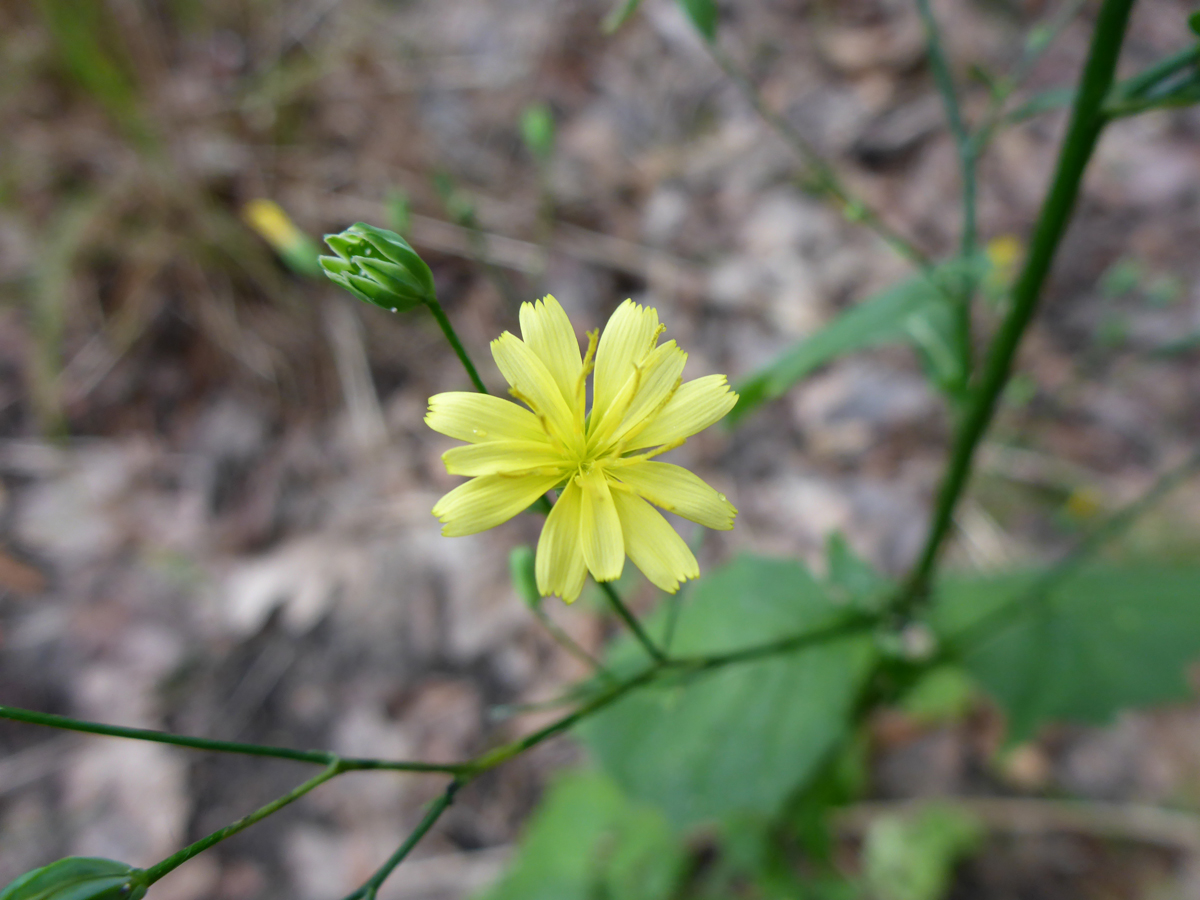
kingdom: Plantae
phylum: Tracheophyta
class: Magnoliopsida
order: Asterales
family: Asteraceae
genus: Lapsana
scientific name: Lapsana communis
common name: Nipplewort
